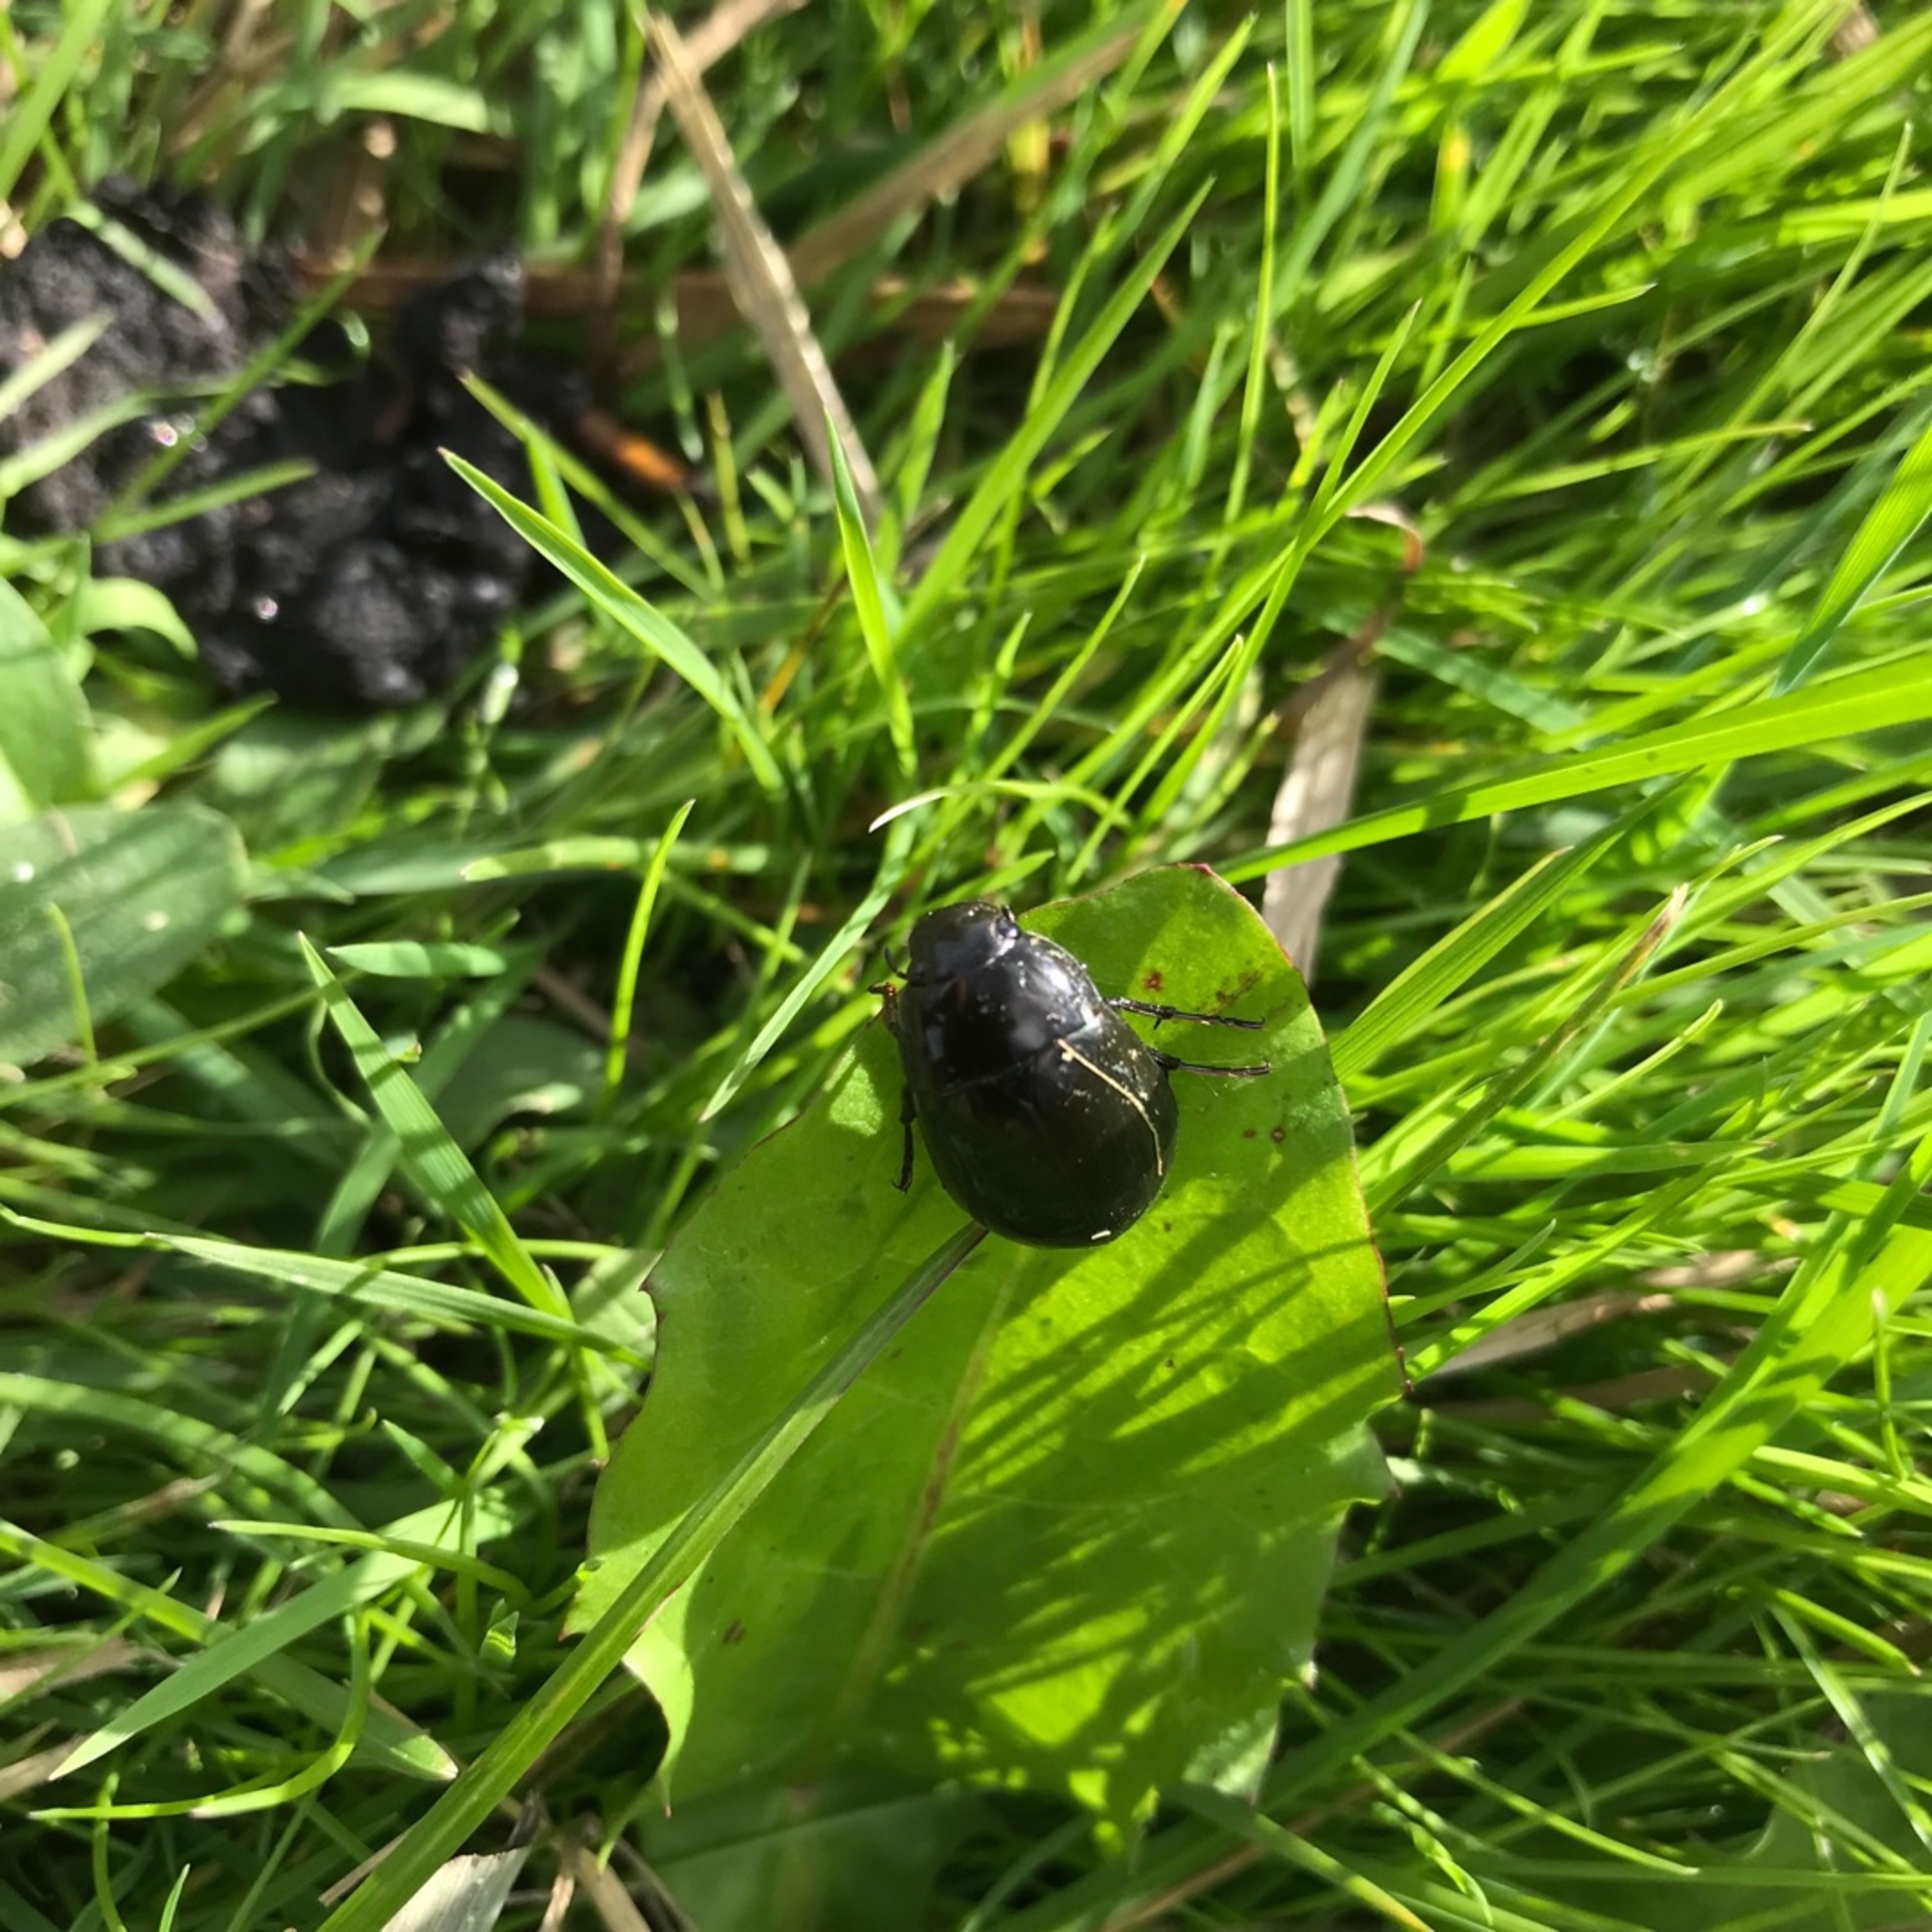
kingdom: Animalia
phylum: Arthropoda
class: Insecta
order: Coleoptera
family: Hydrophilidae
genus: Hydrochara
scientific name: Hydrochara caraboides
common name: Mellemstor vandkær
